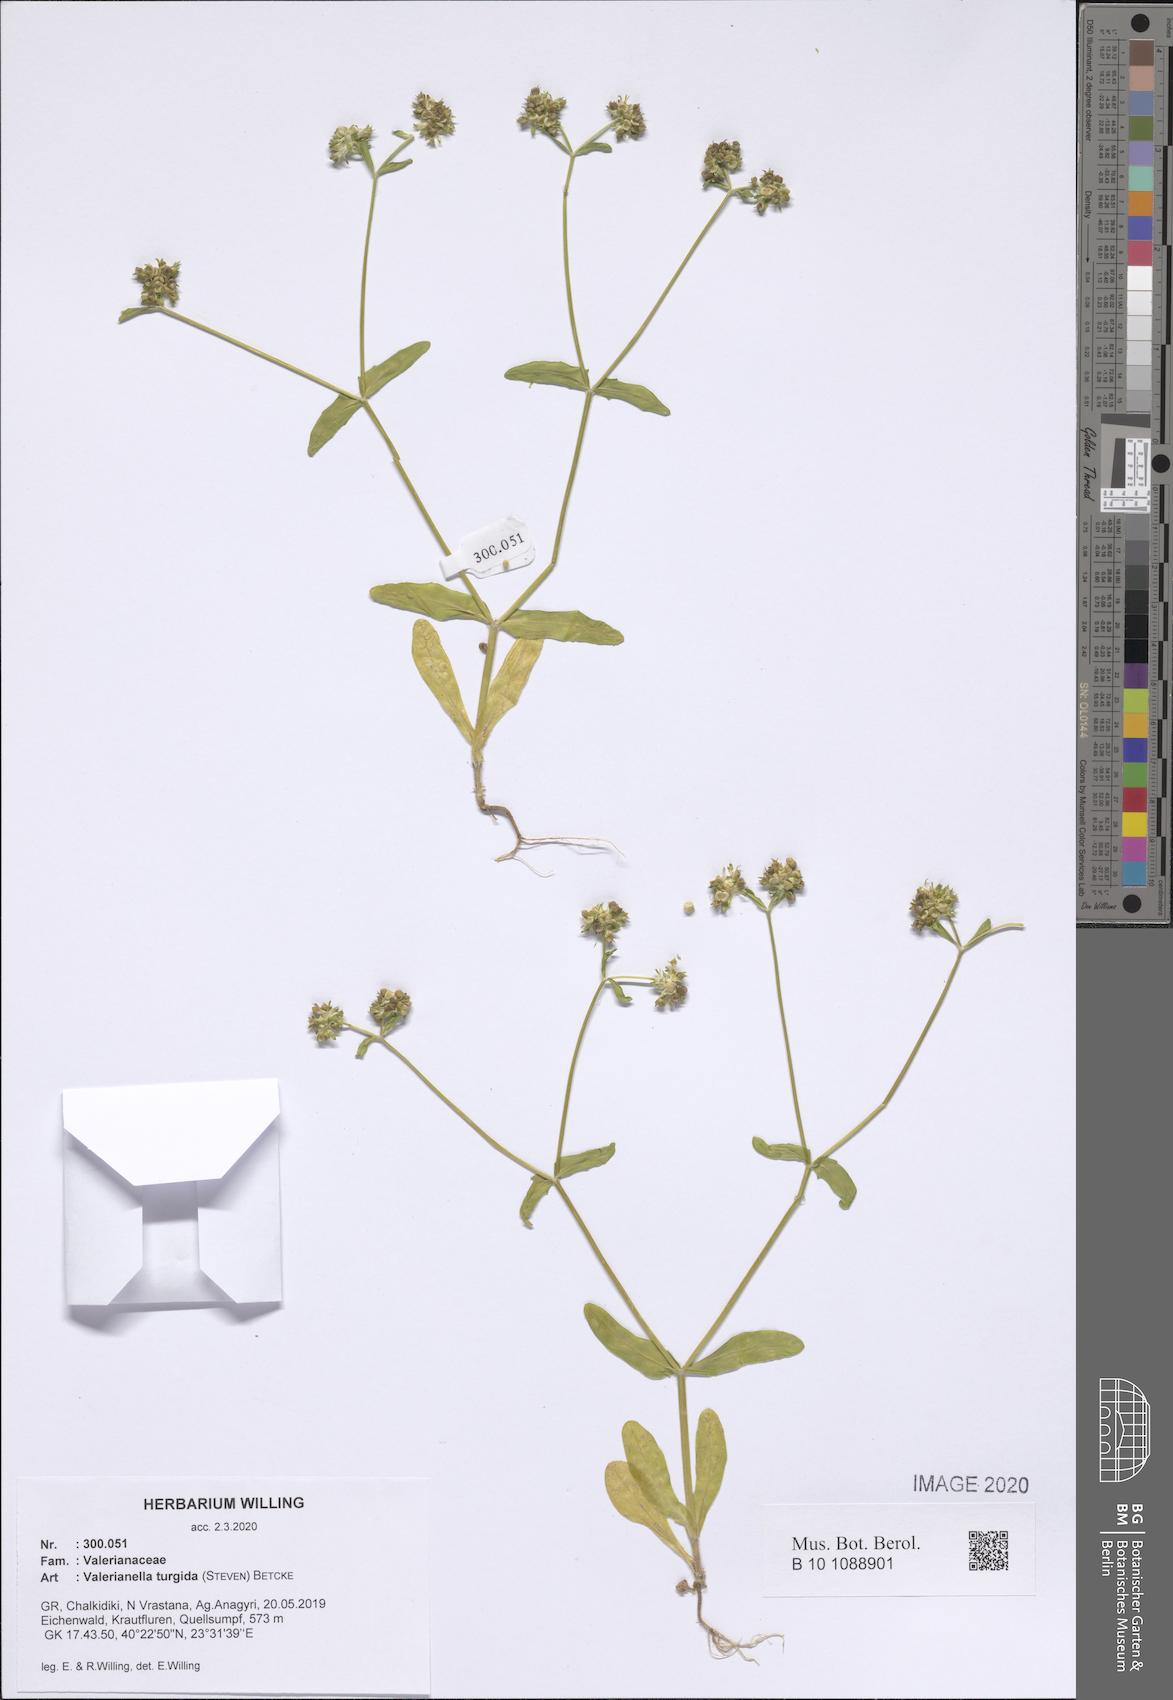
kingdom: Plantae
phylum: Tracheophyta
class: Magnoliopsida
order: Dipsacales
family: Caprifoliaceae
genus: Valerianella
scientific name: Valerianella turgida
